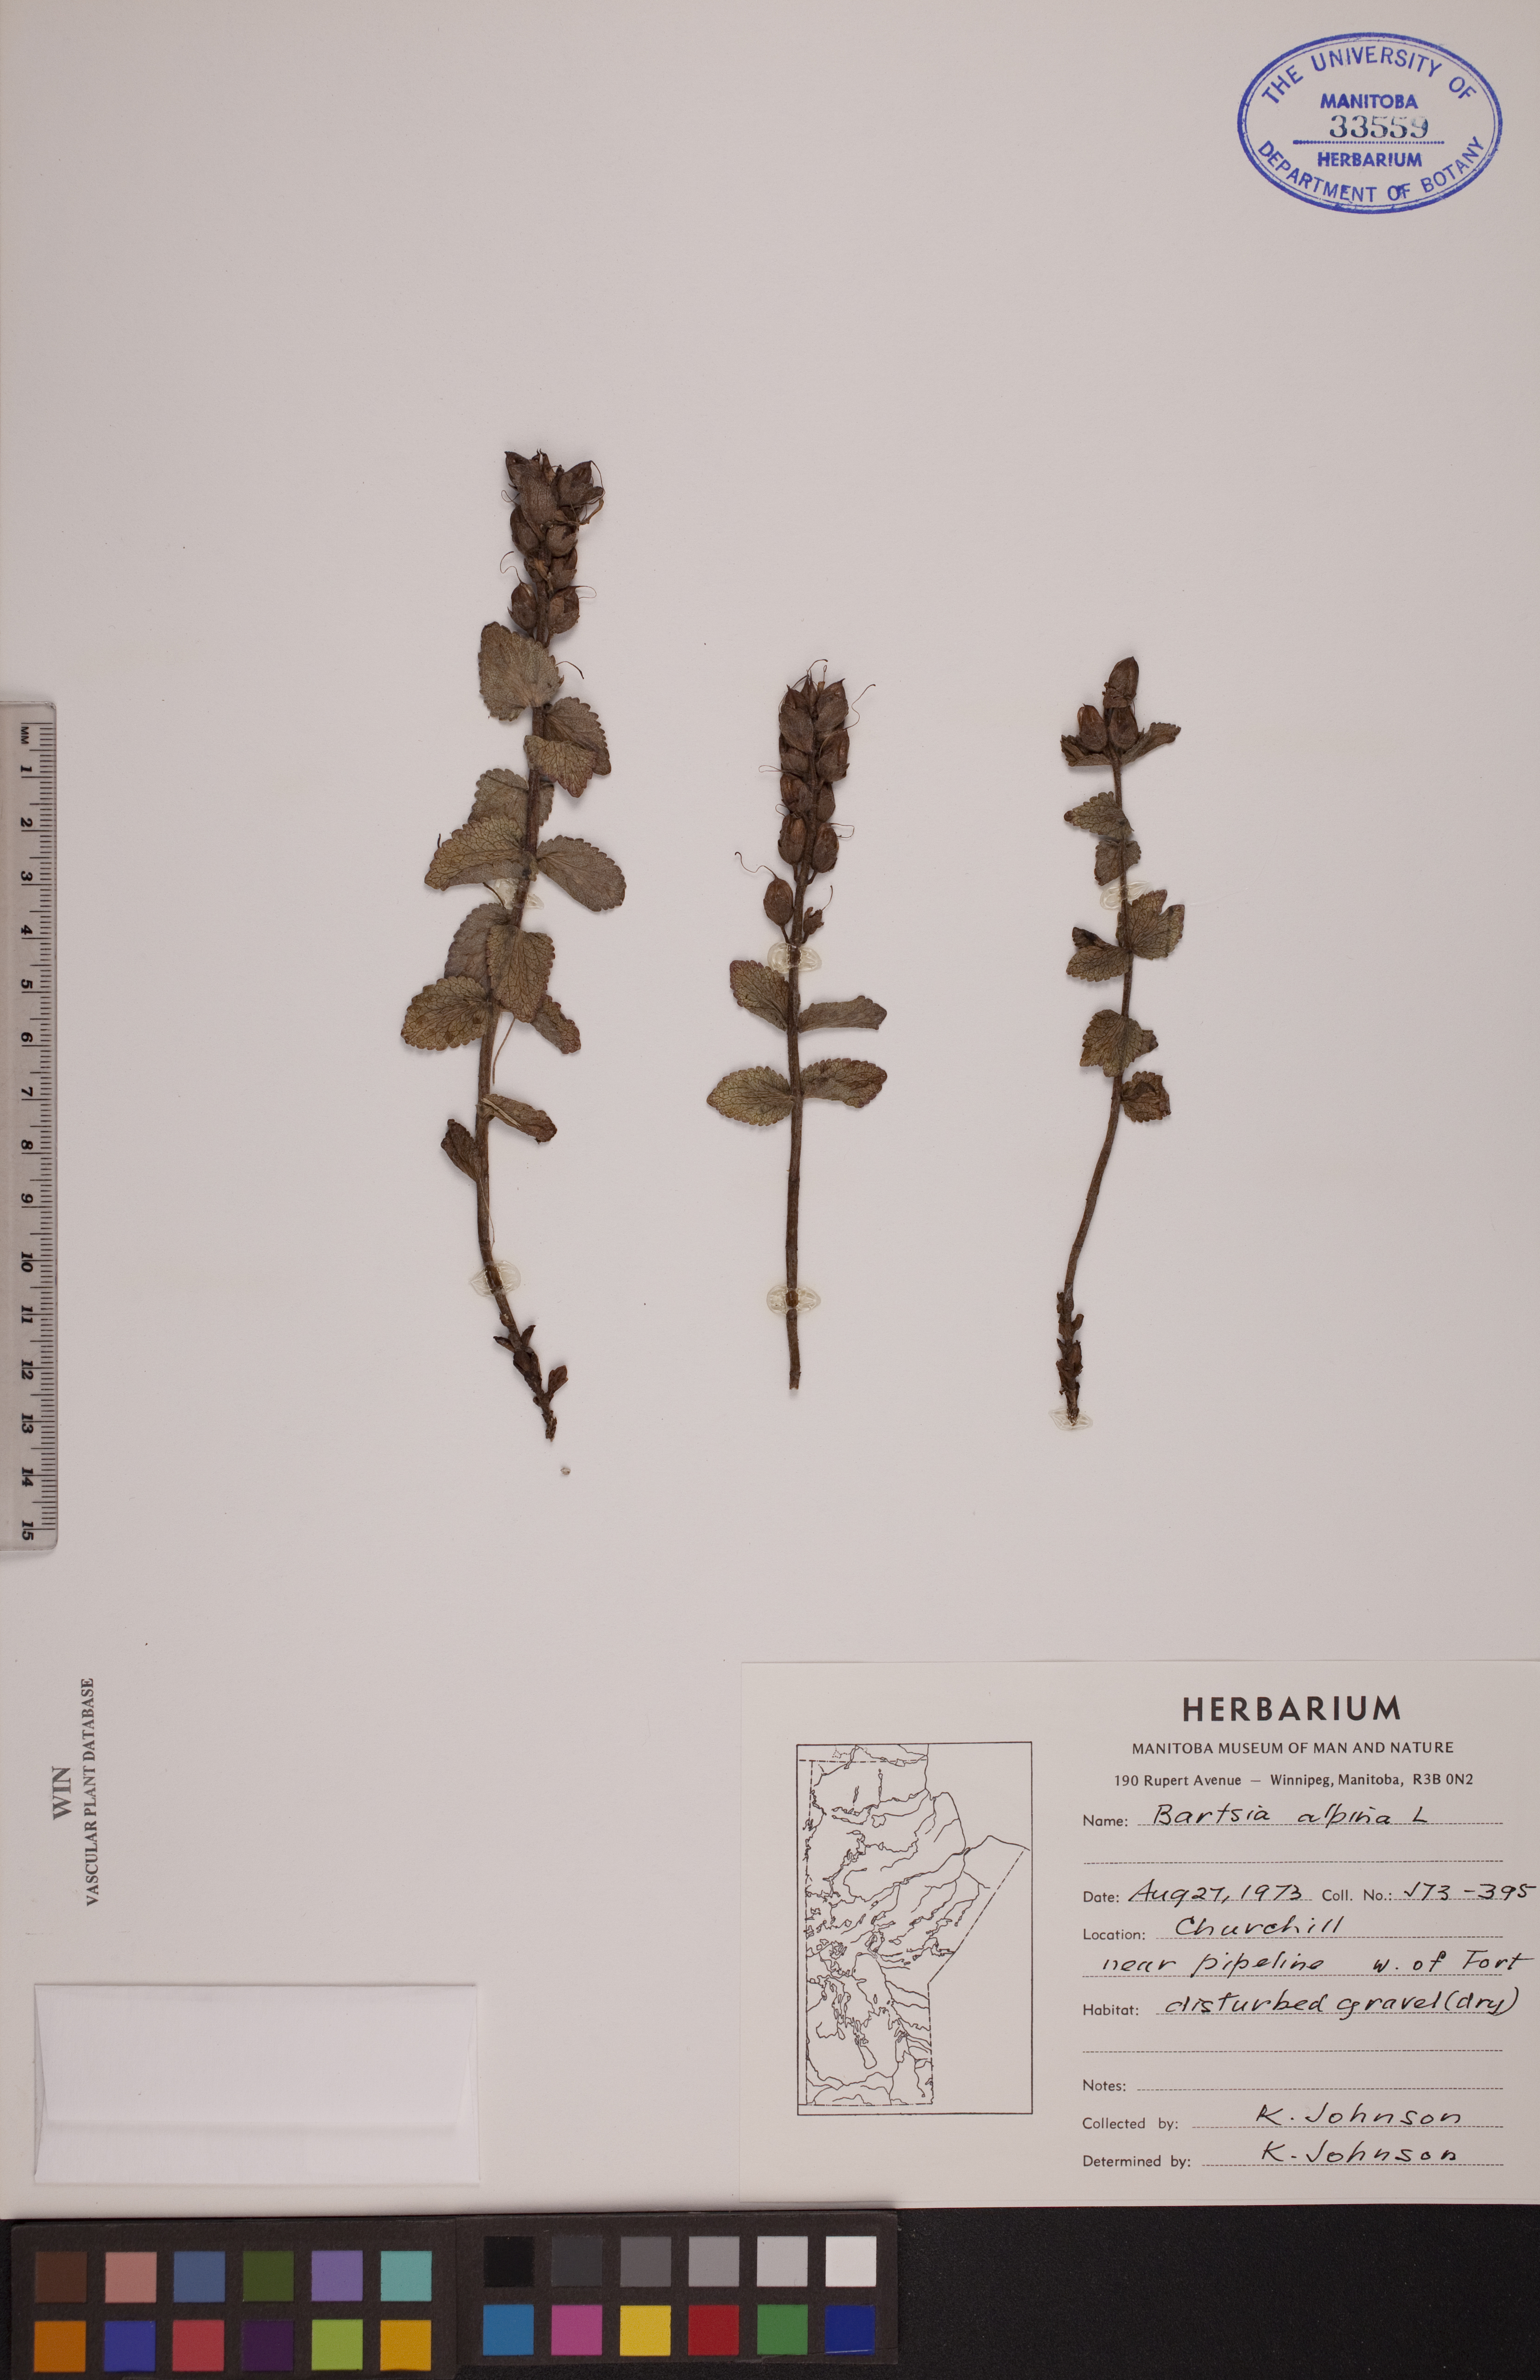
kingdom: Plantae
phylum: Tracheophyta
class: Magnoliopsida
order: Lamiales
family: Orobanchaceae
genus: Bartsia
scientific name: Bartsia alpina
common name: Alpine bartsia
